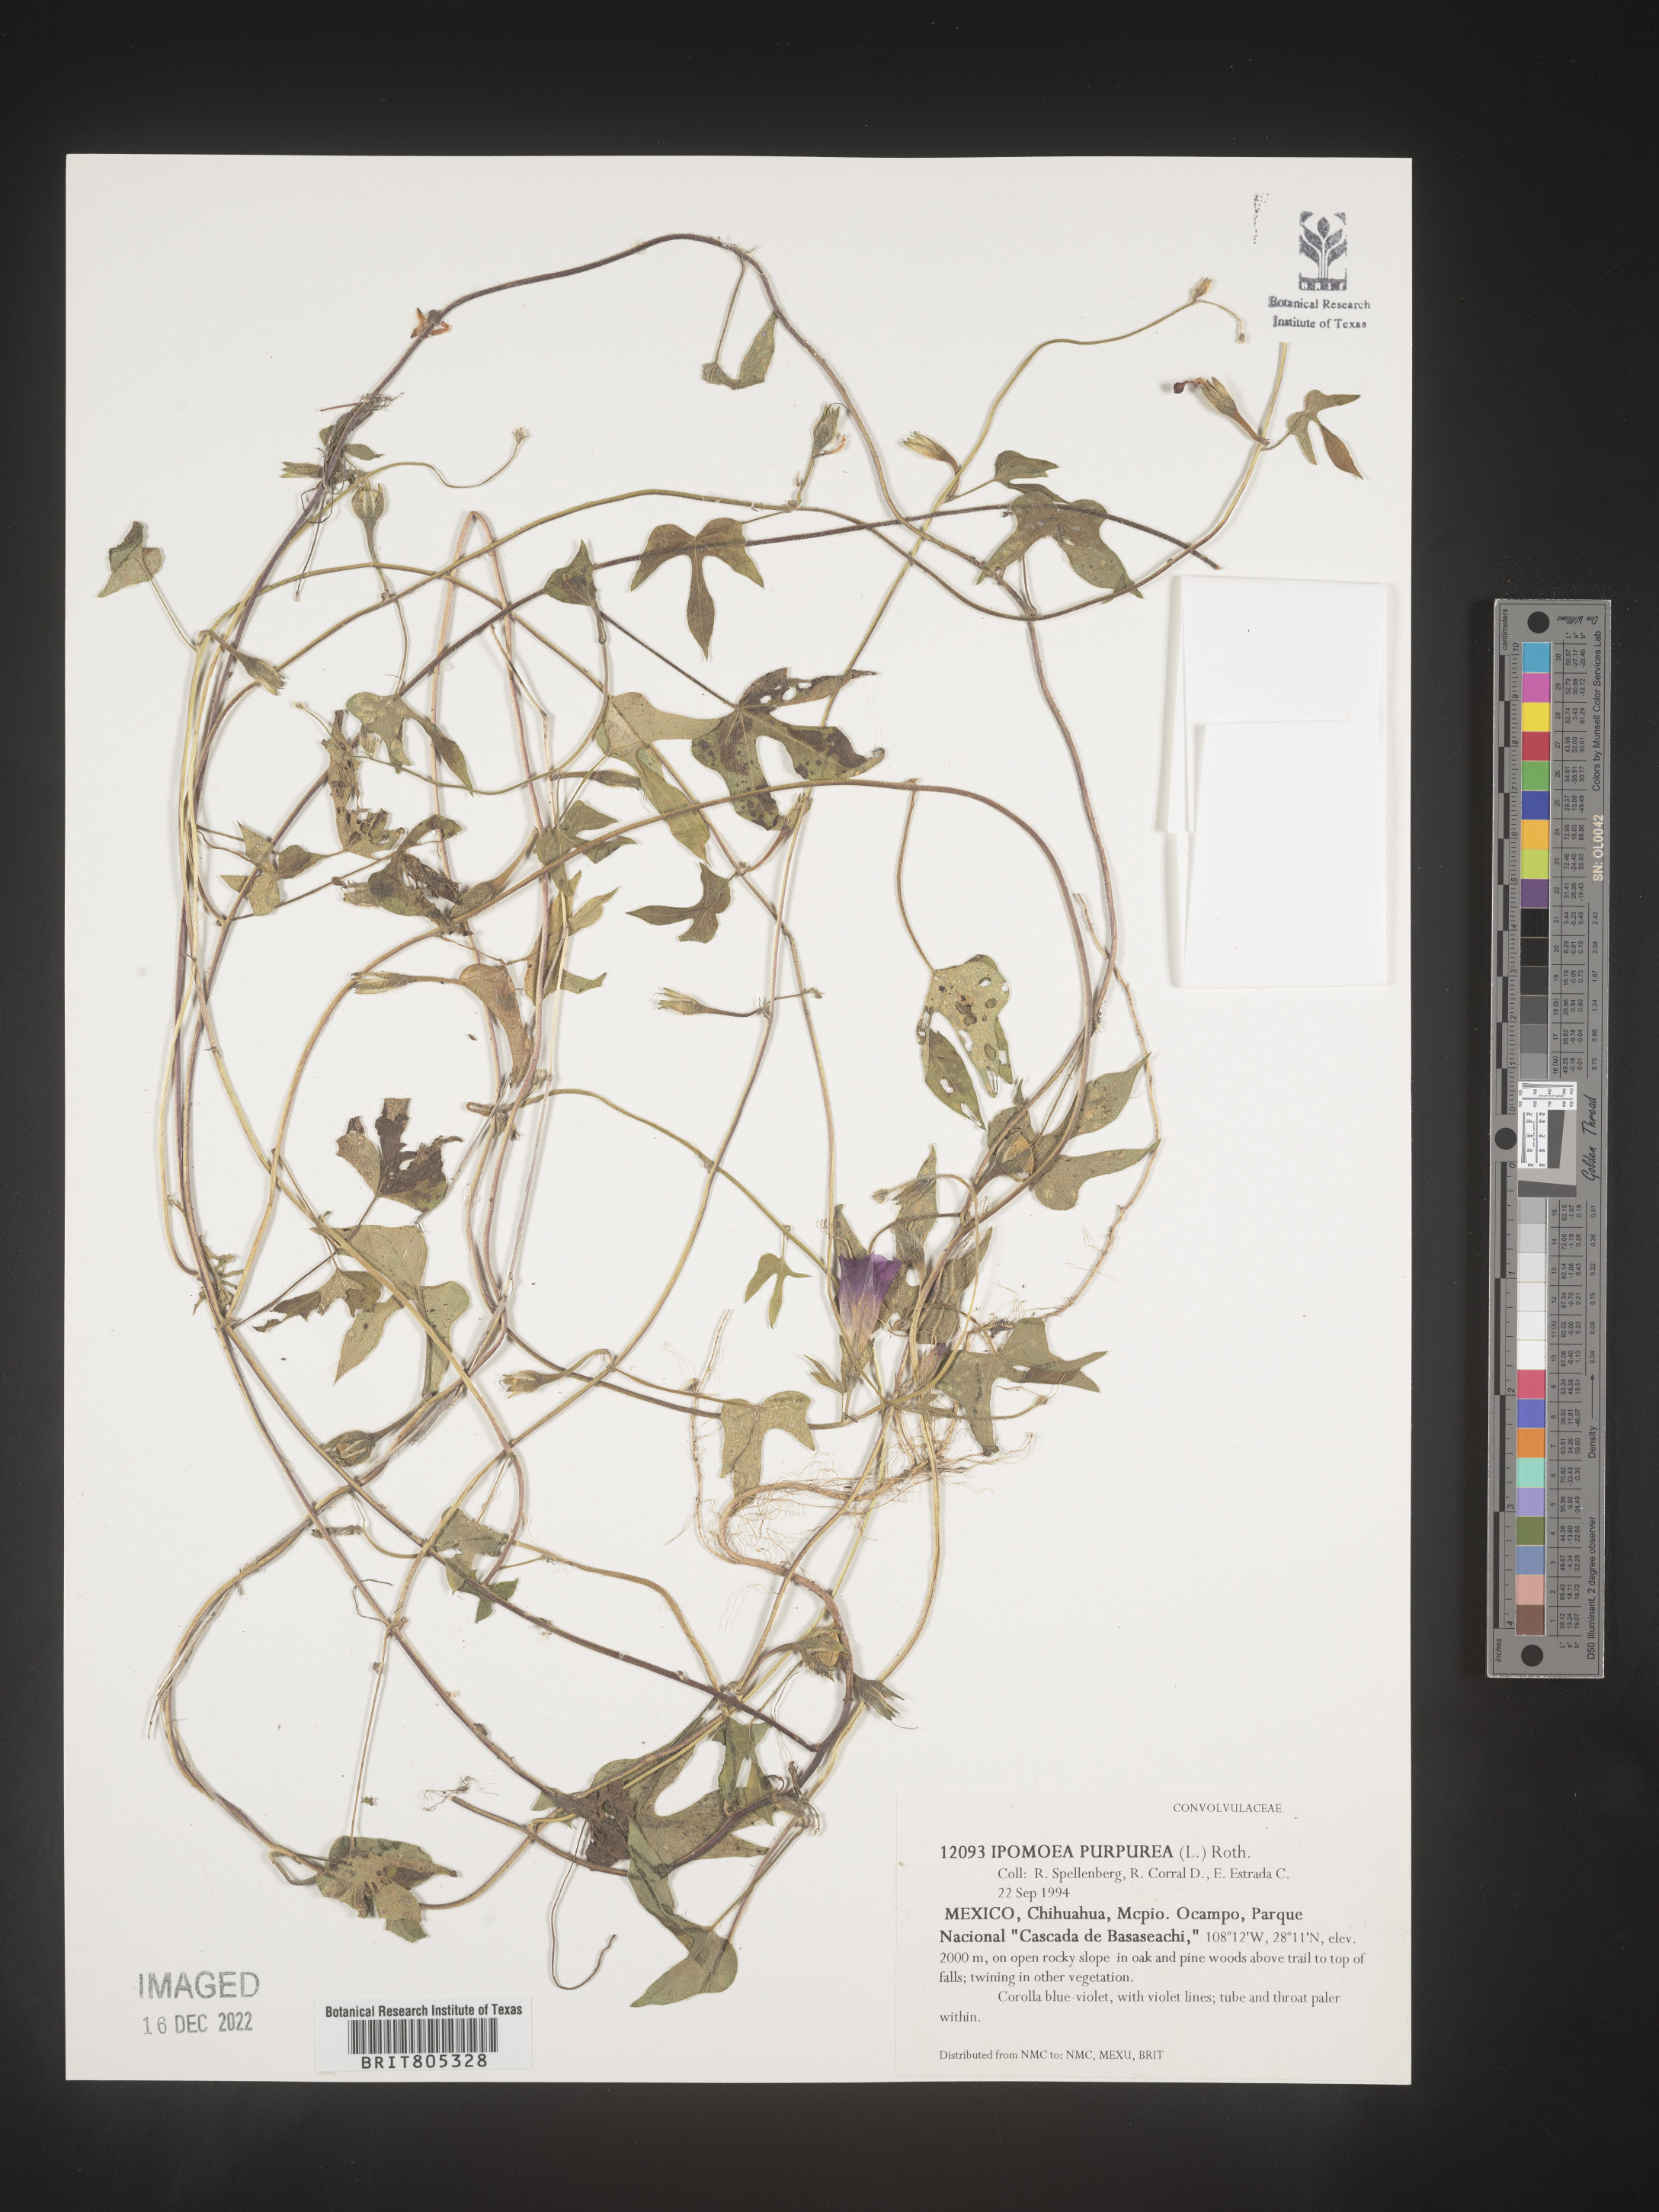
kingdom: Plantae
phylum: Tracheophyta
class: Magnoliopsida
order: Solanales
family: Convolvulaceae
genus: Ipomoea
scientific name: Ipomoea
